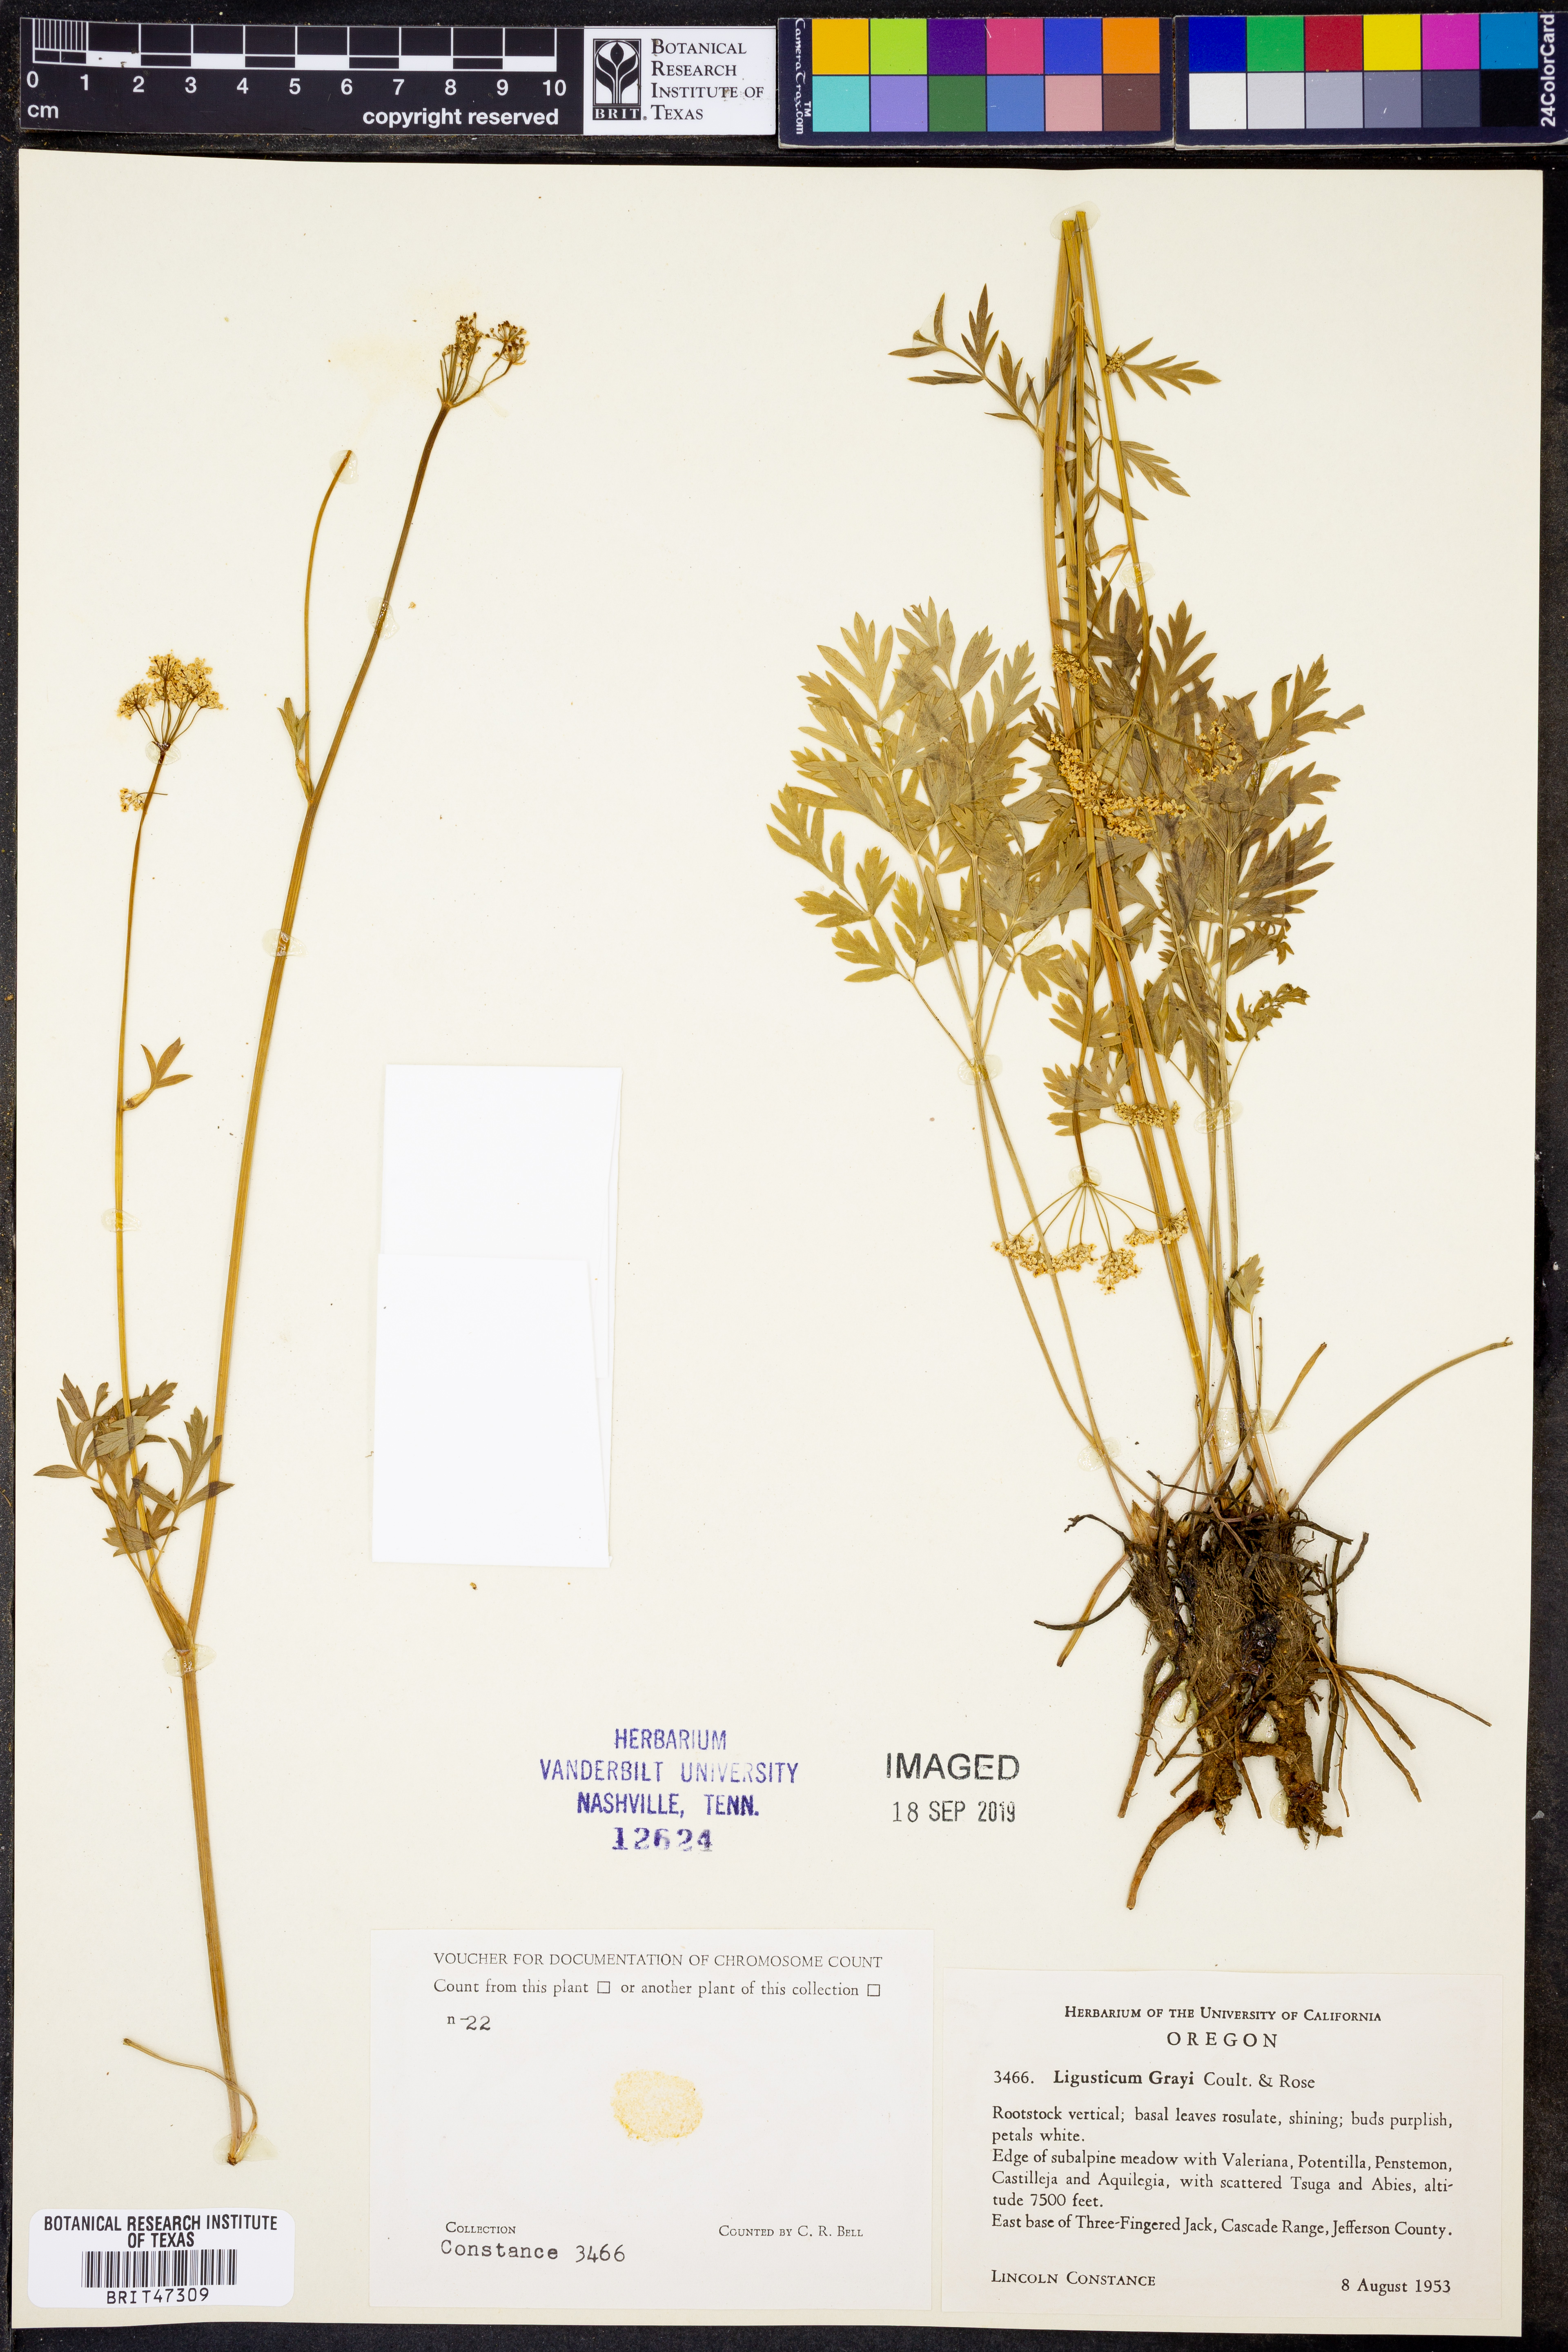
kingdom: Plantae
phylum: Tracheophyta
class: Magnoliopsida
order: Apiales
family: Apiaceae
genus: Ligusticum
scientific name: Ligusticum grayi
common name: Gray's licorice-root
